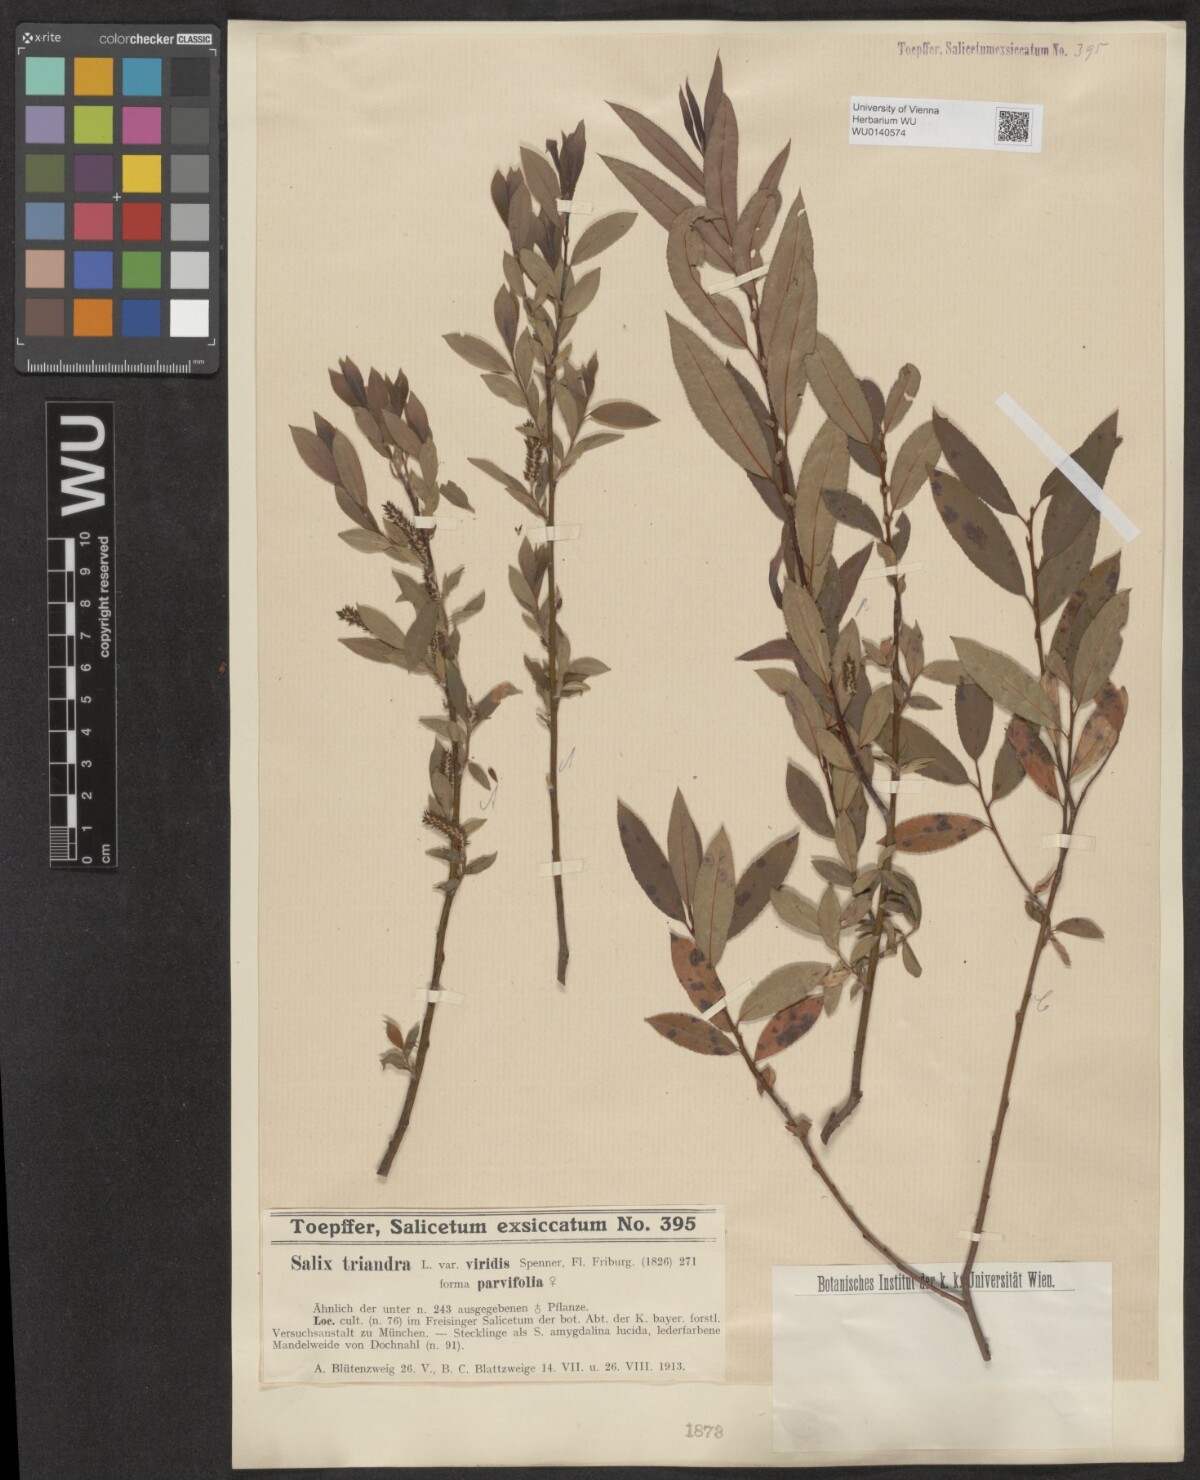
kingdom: Plantae
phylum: Tracheophyta
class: Magnoliopsida
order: Malpighiales
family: Salicaceae
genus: Salix
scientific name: Salix triandra
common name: Almond willow
